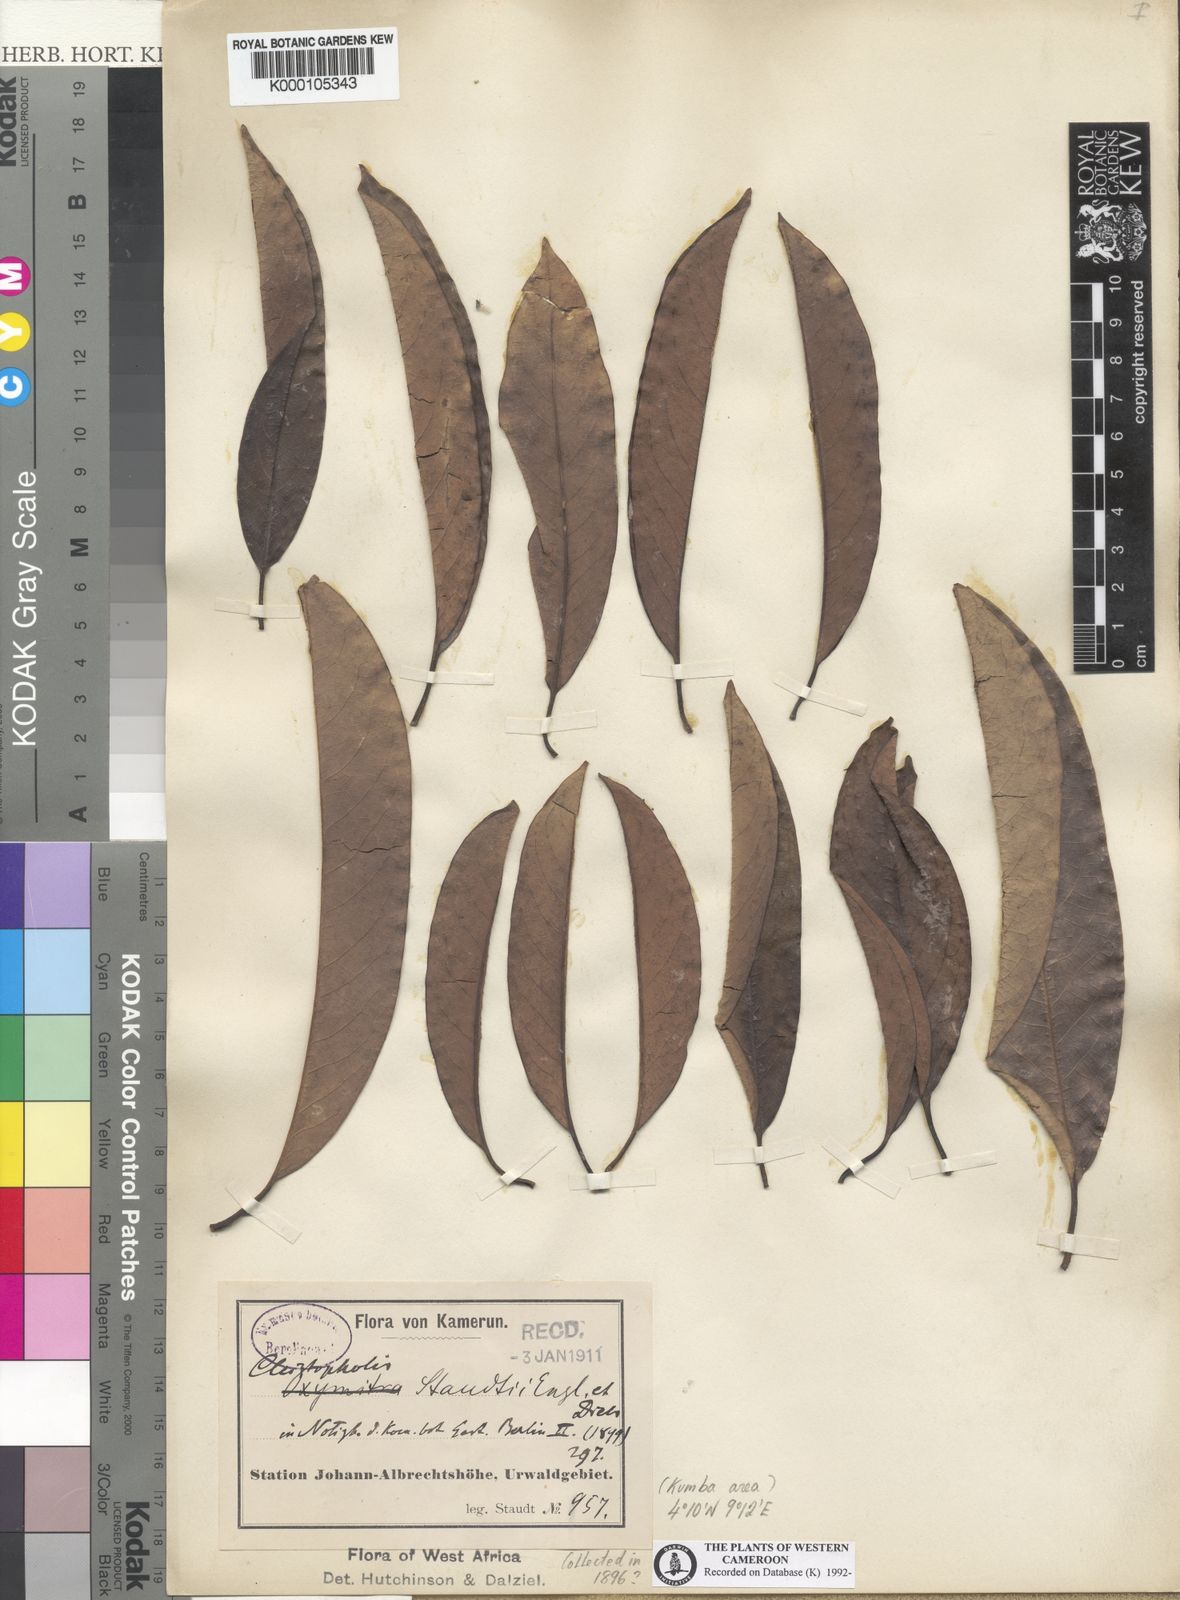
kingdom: Plantae
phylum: Tracheophyta
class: Magnoliopsida
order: Magnoliales
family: Annonaceae
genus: Cleistopholis
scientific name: Cleistopholis staudtii
